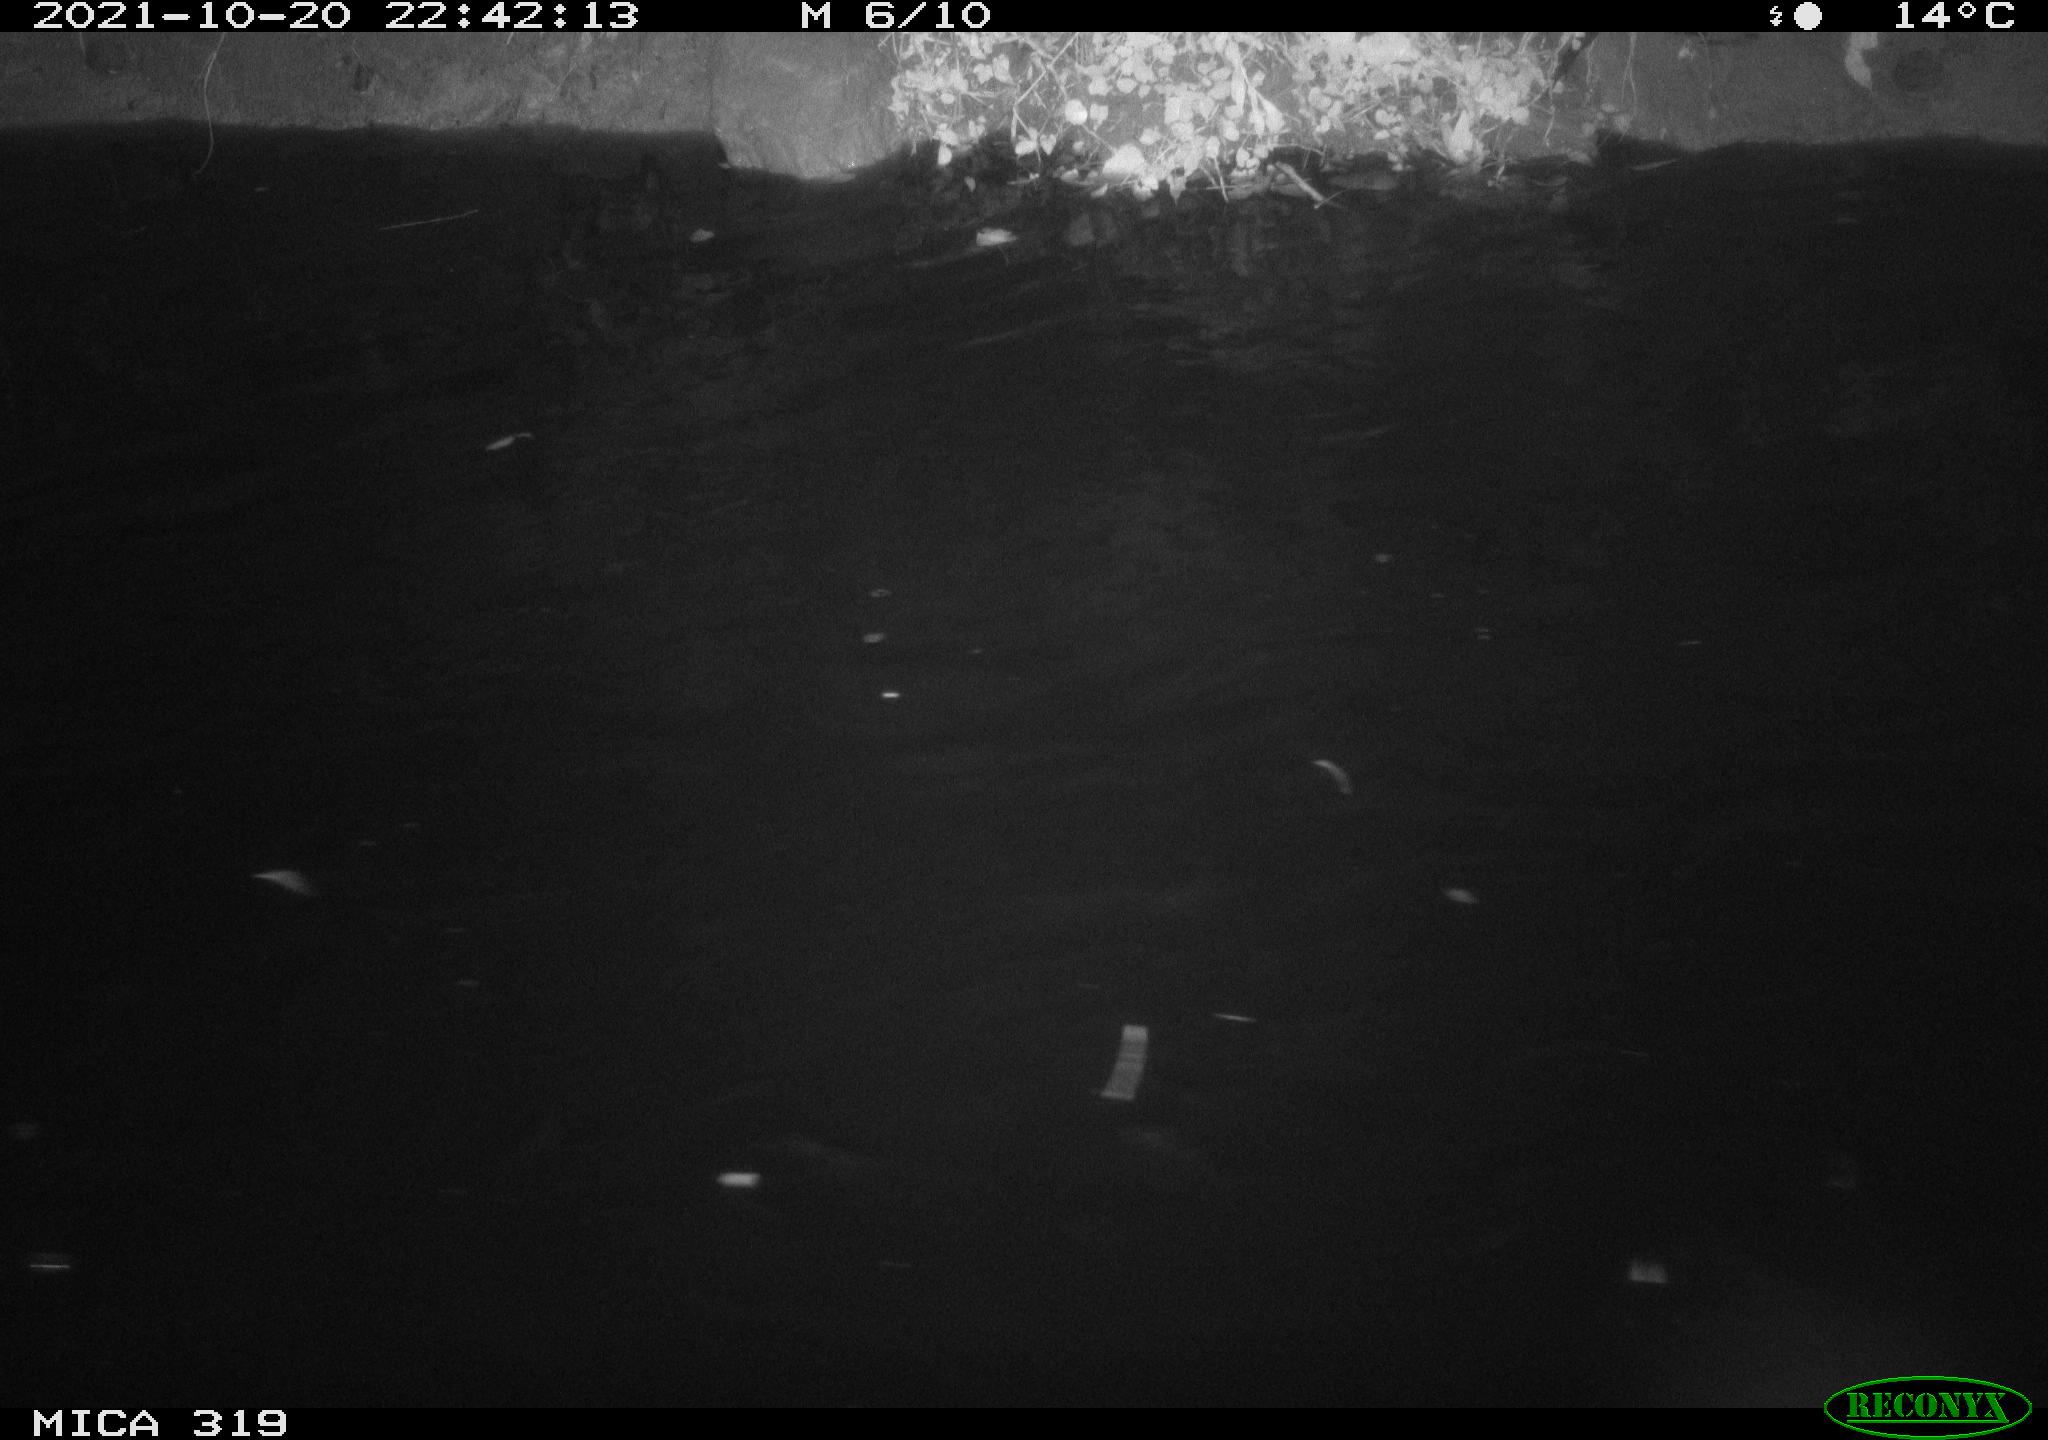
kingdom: Animalia
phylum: Chordata
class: Aves
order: Anseriformes
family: Anatidae
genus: Anas
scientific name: Anas platyrhynchos
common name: Mallard
